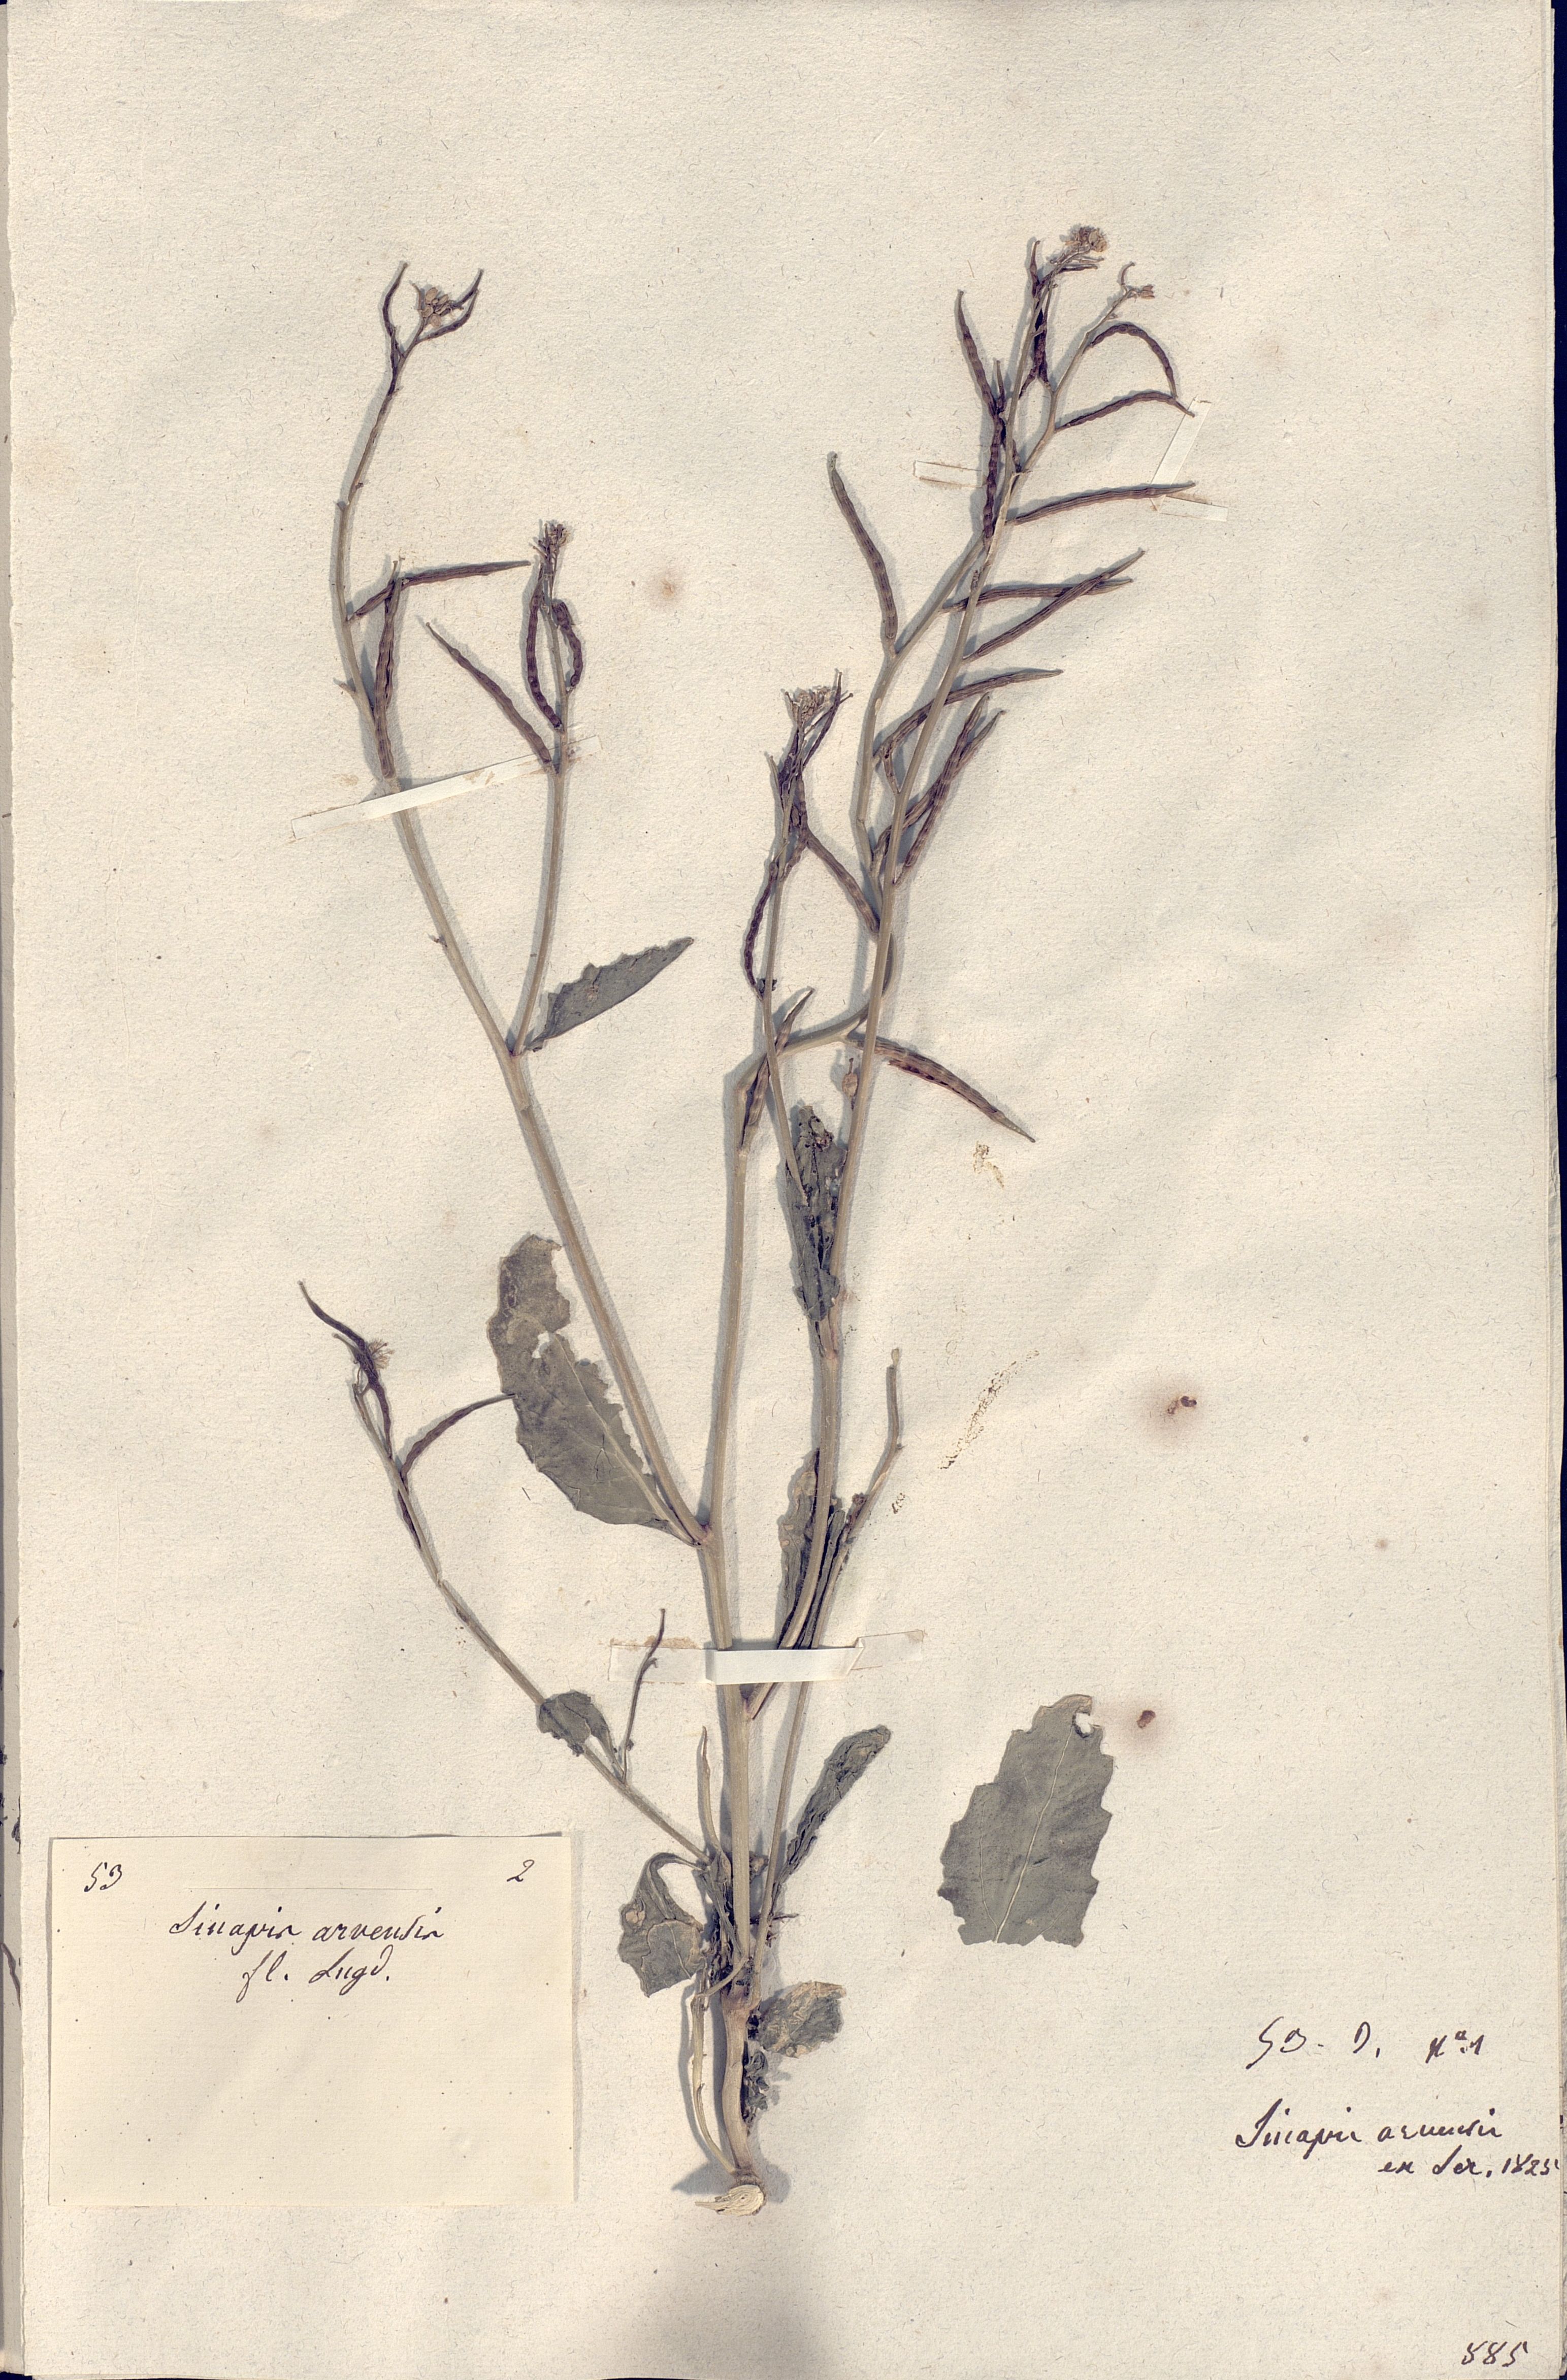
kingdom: Plantae
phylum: Tracheophyta
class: Magnoliopsida
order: Brassicales
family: Brassicaceae
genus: Sinapis
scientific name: Sinapis arvensis
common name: Charlock
